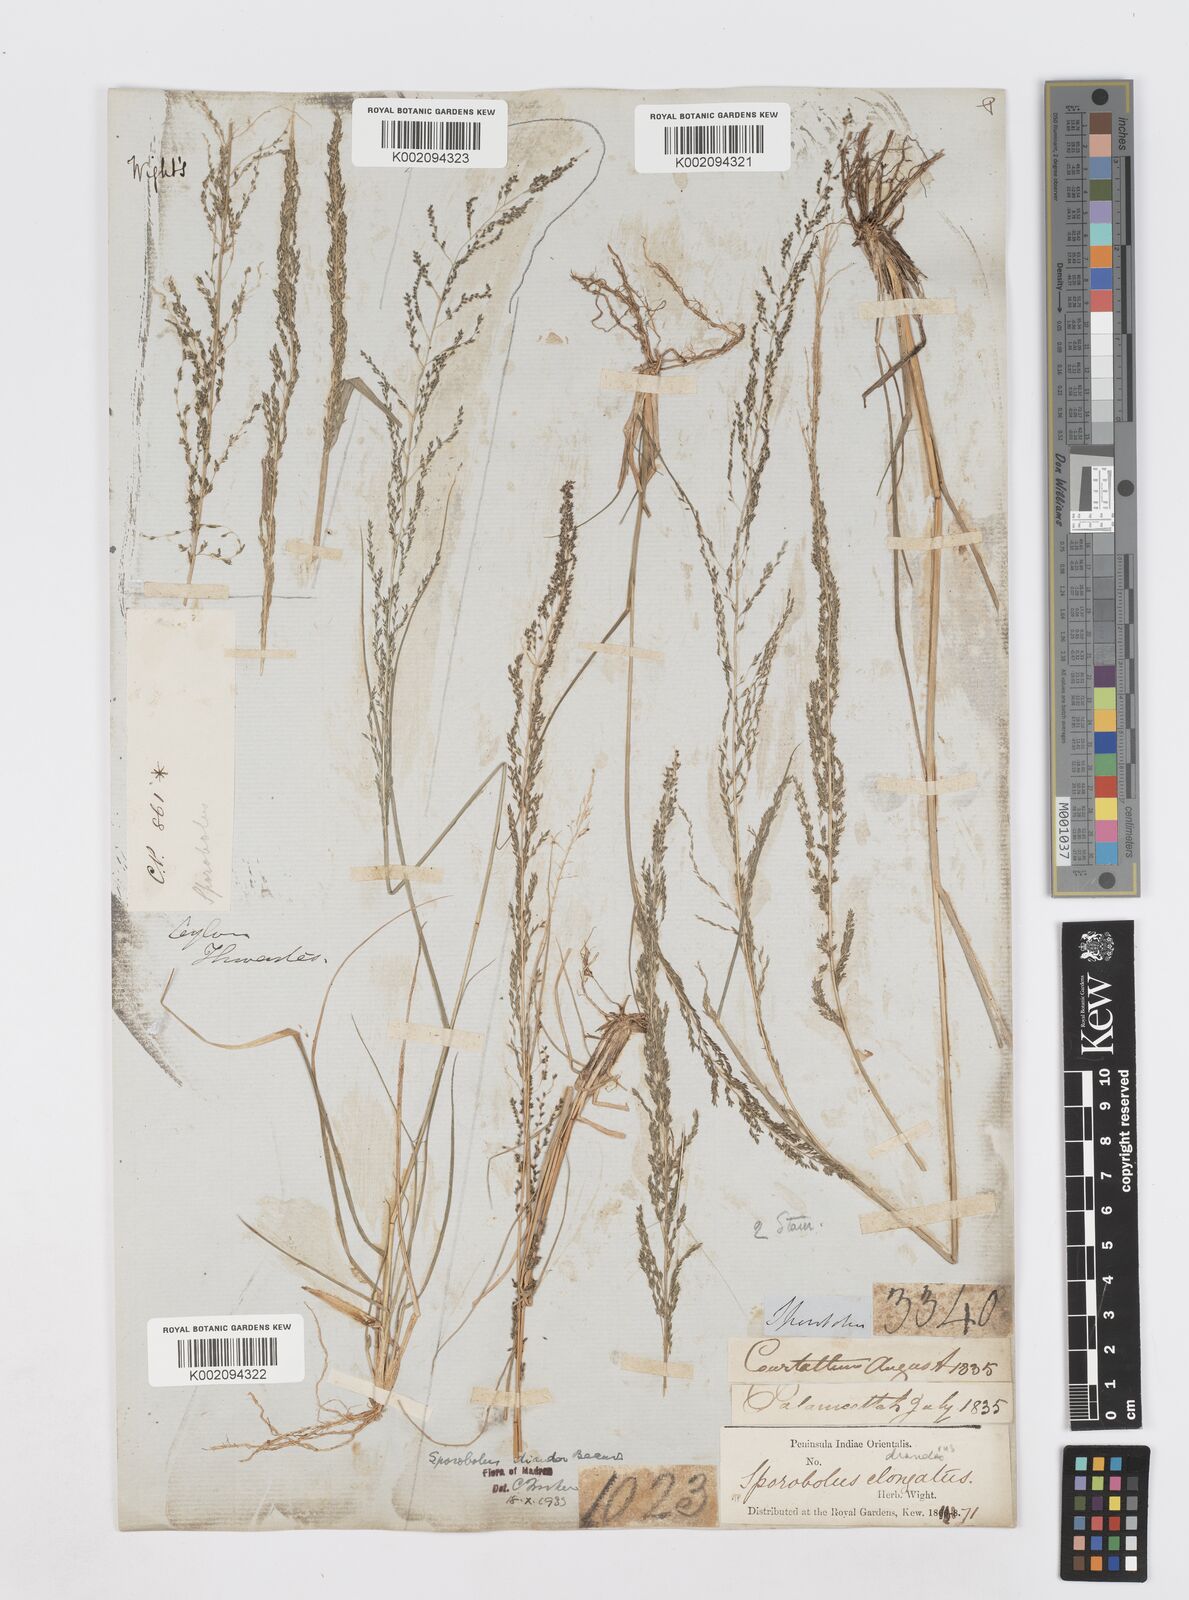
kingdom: Plantae
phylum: Tracheophyta
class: Liliopsida
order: Poales
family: Poaceae
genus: Sporobolus
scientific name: Sporobolus diandrus
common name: Tussock dropseed
